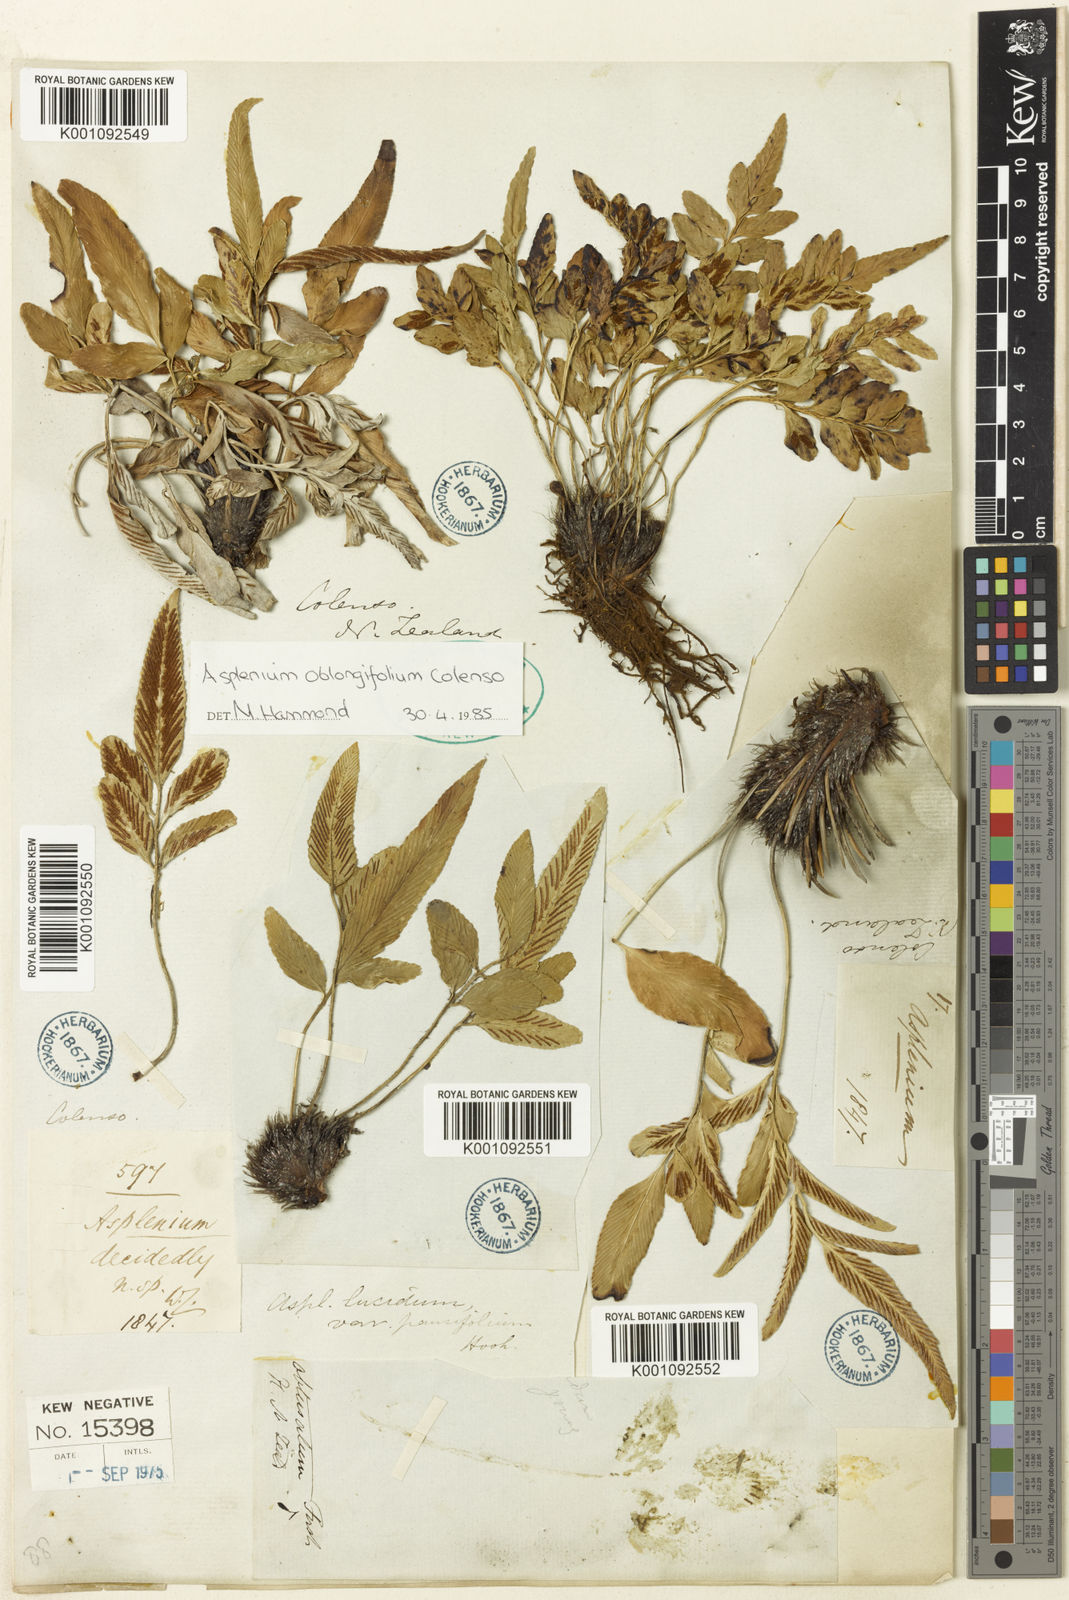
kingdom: Plantae
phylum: Tracheophyta
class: Polypodiopsida
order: Polypodiales
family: Aspleniaceae
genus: Asplenium
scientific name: Asplenium oblongifolium
